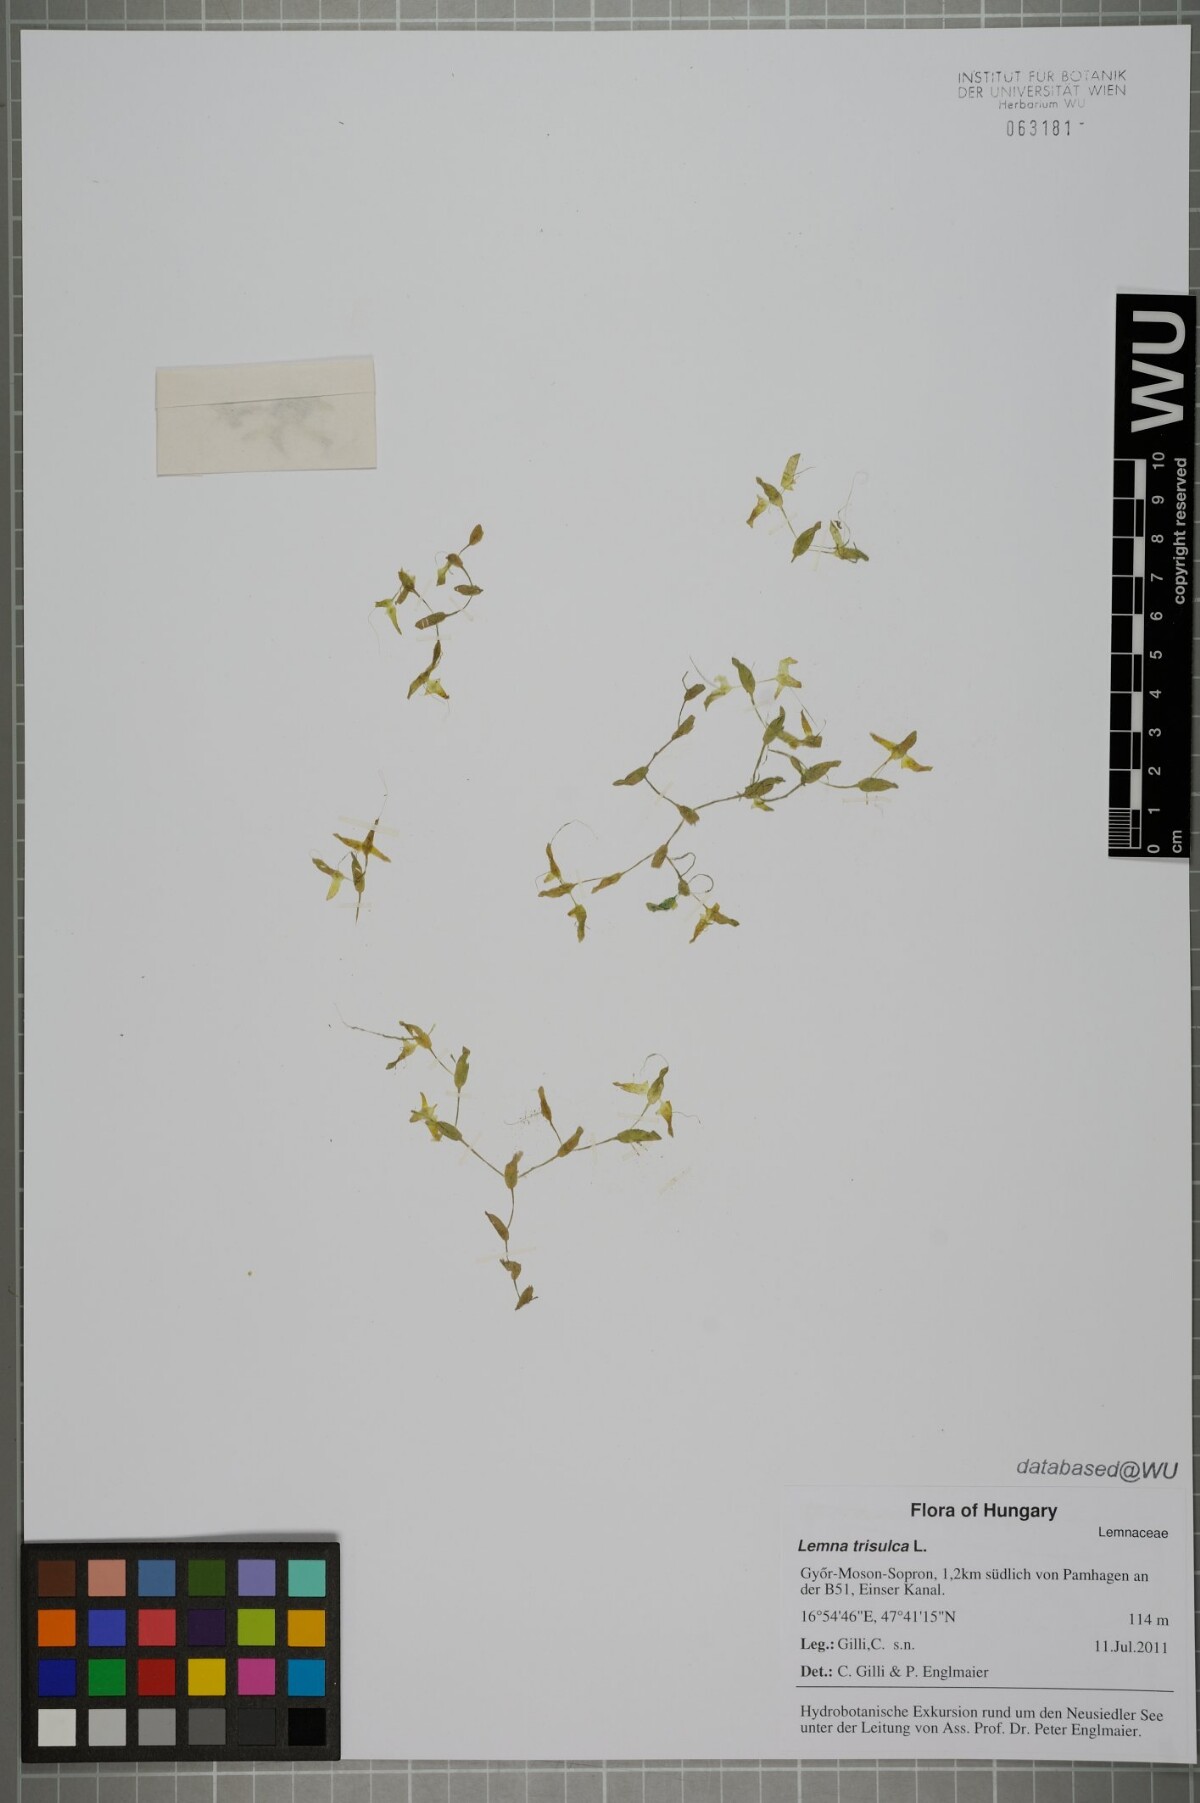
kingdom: Plantae
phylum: Tracheophyta
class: Liliopsida
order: Alismatales
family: Araceae
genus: Lemna
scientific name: Lemna trisulca
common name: Ivy-leaved duckweed
